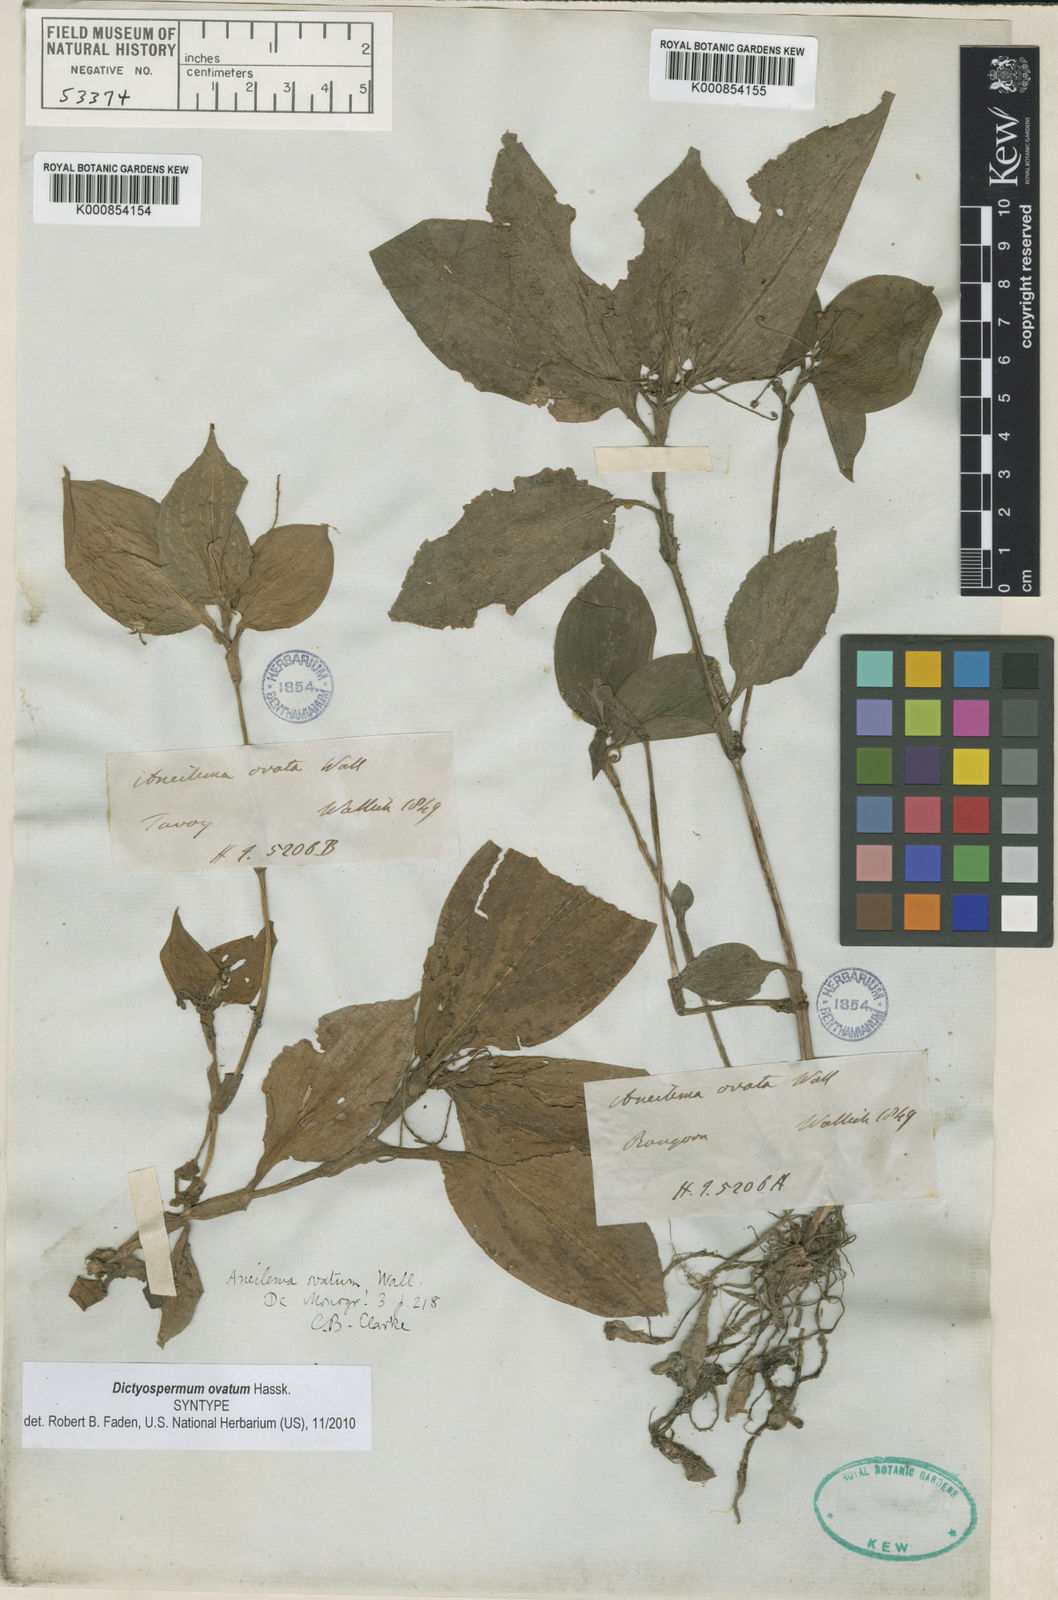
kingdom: Plantae
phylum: Tracheophyta
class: Liliopsida
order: Commelinales
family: Commelinaceae
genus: Dictyospermum
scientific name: Dictyospermum ovatum
